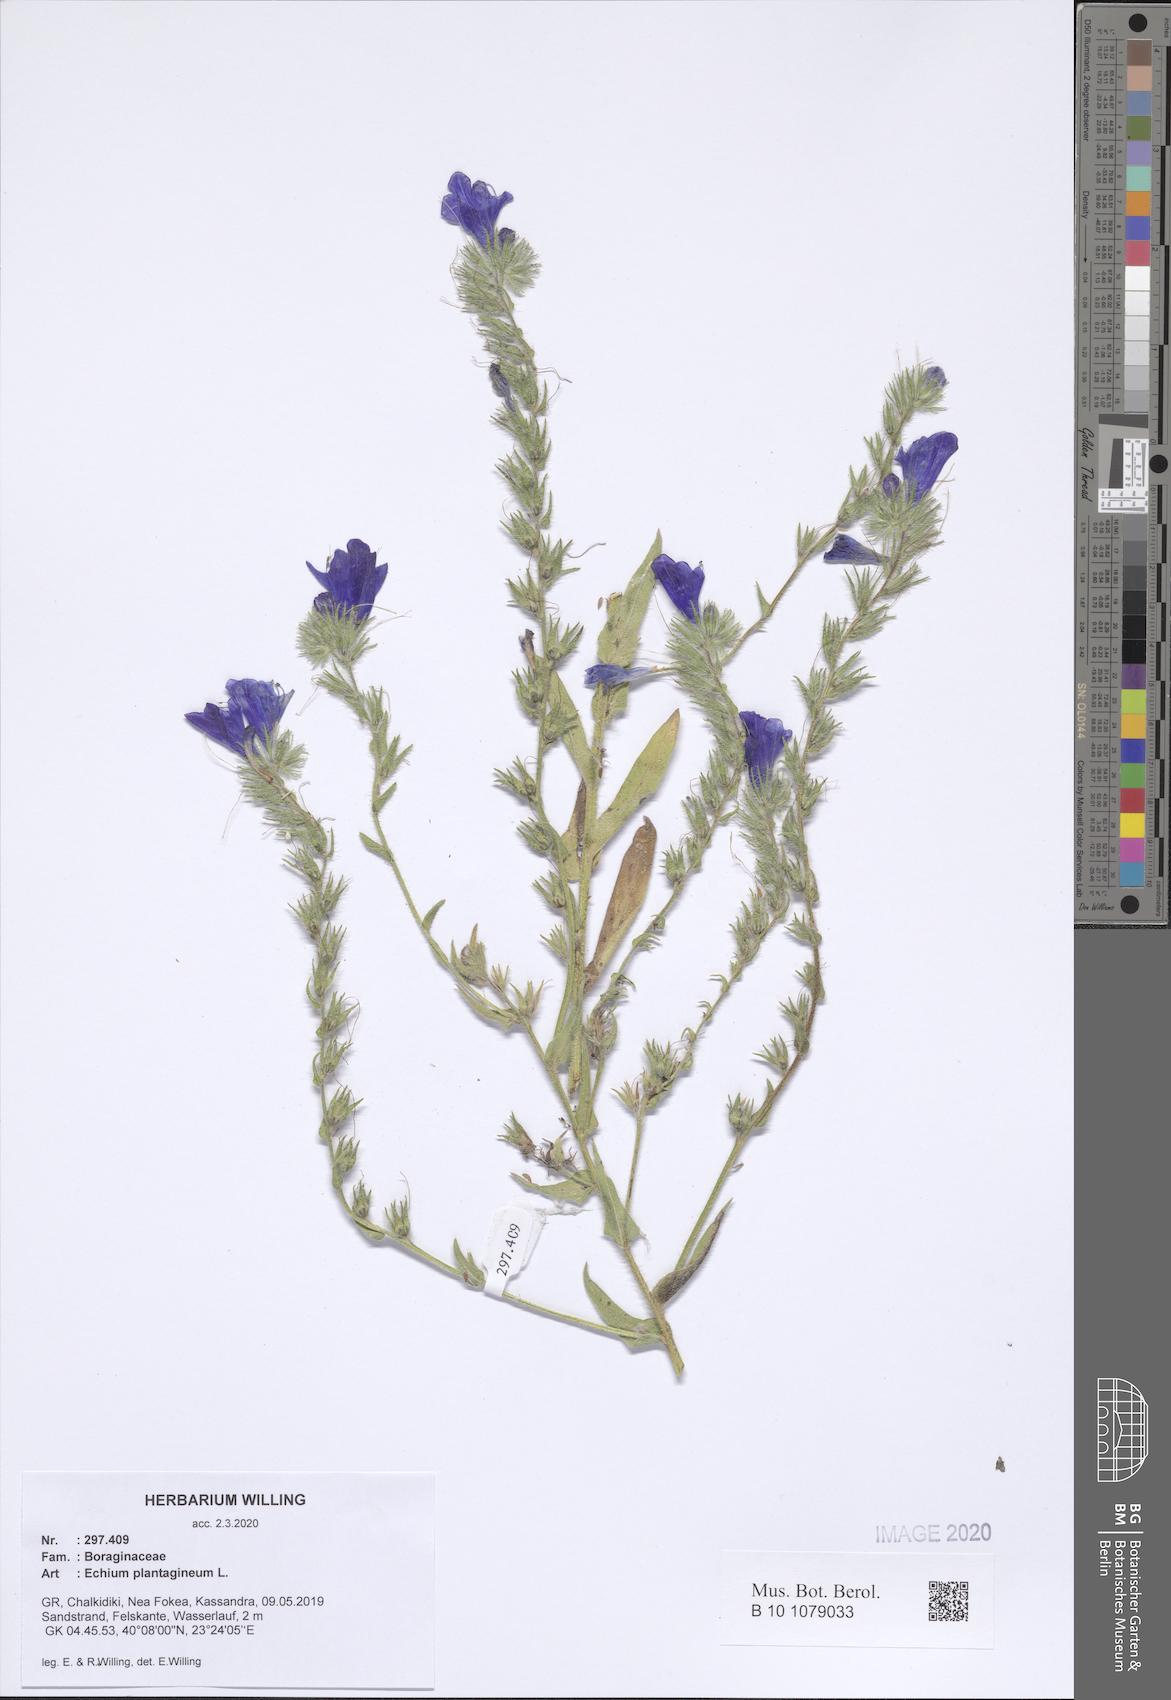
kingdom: Plantae
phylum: Tracheophyta
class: Magnoliopsida
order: Boraginales
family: Boraginaceae
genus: Echium
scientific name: Echium plantagineum
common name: Purple viper's-bugloss
